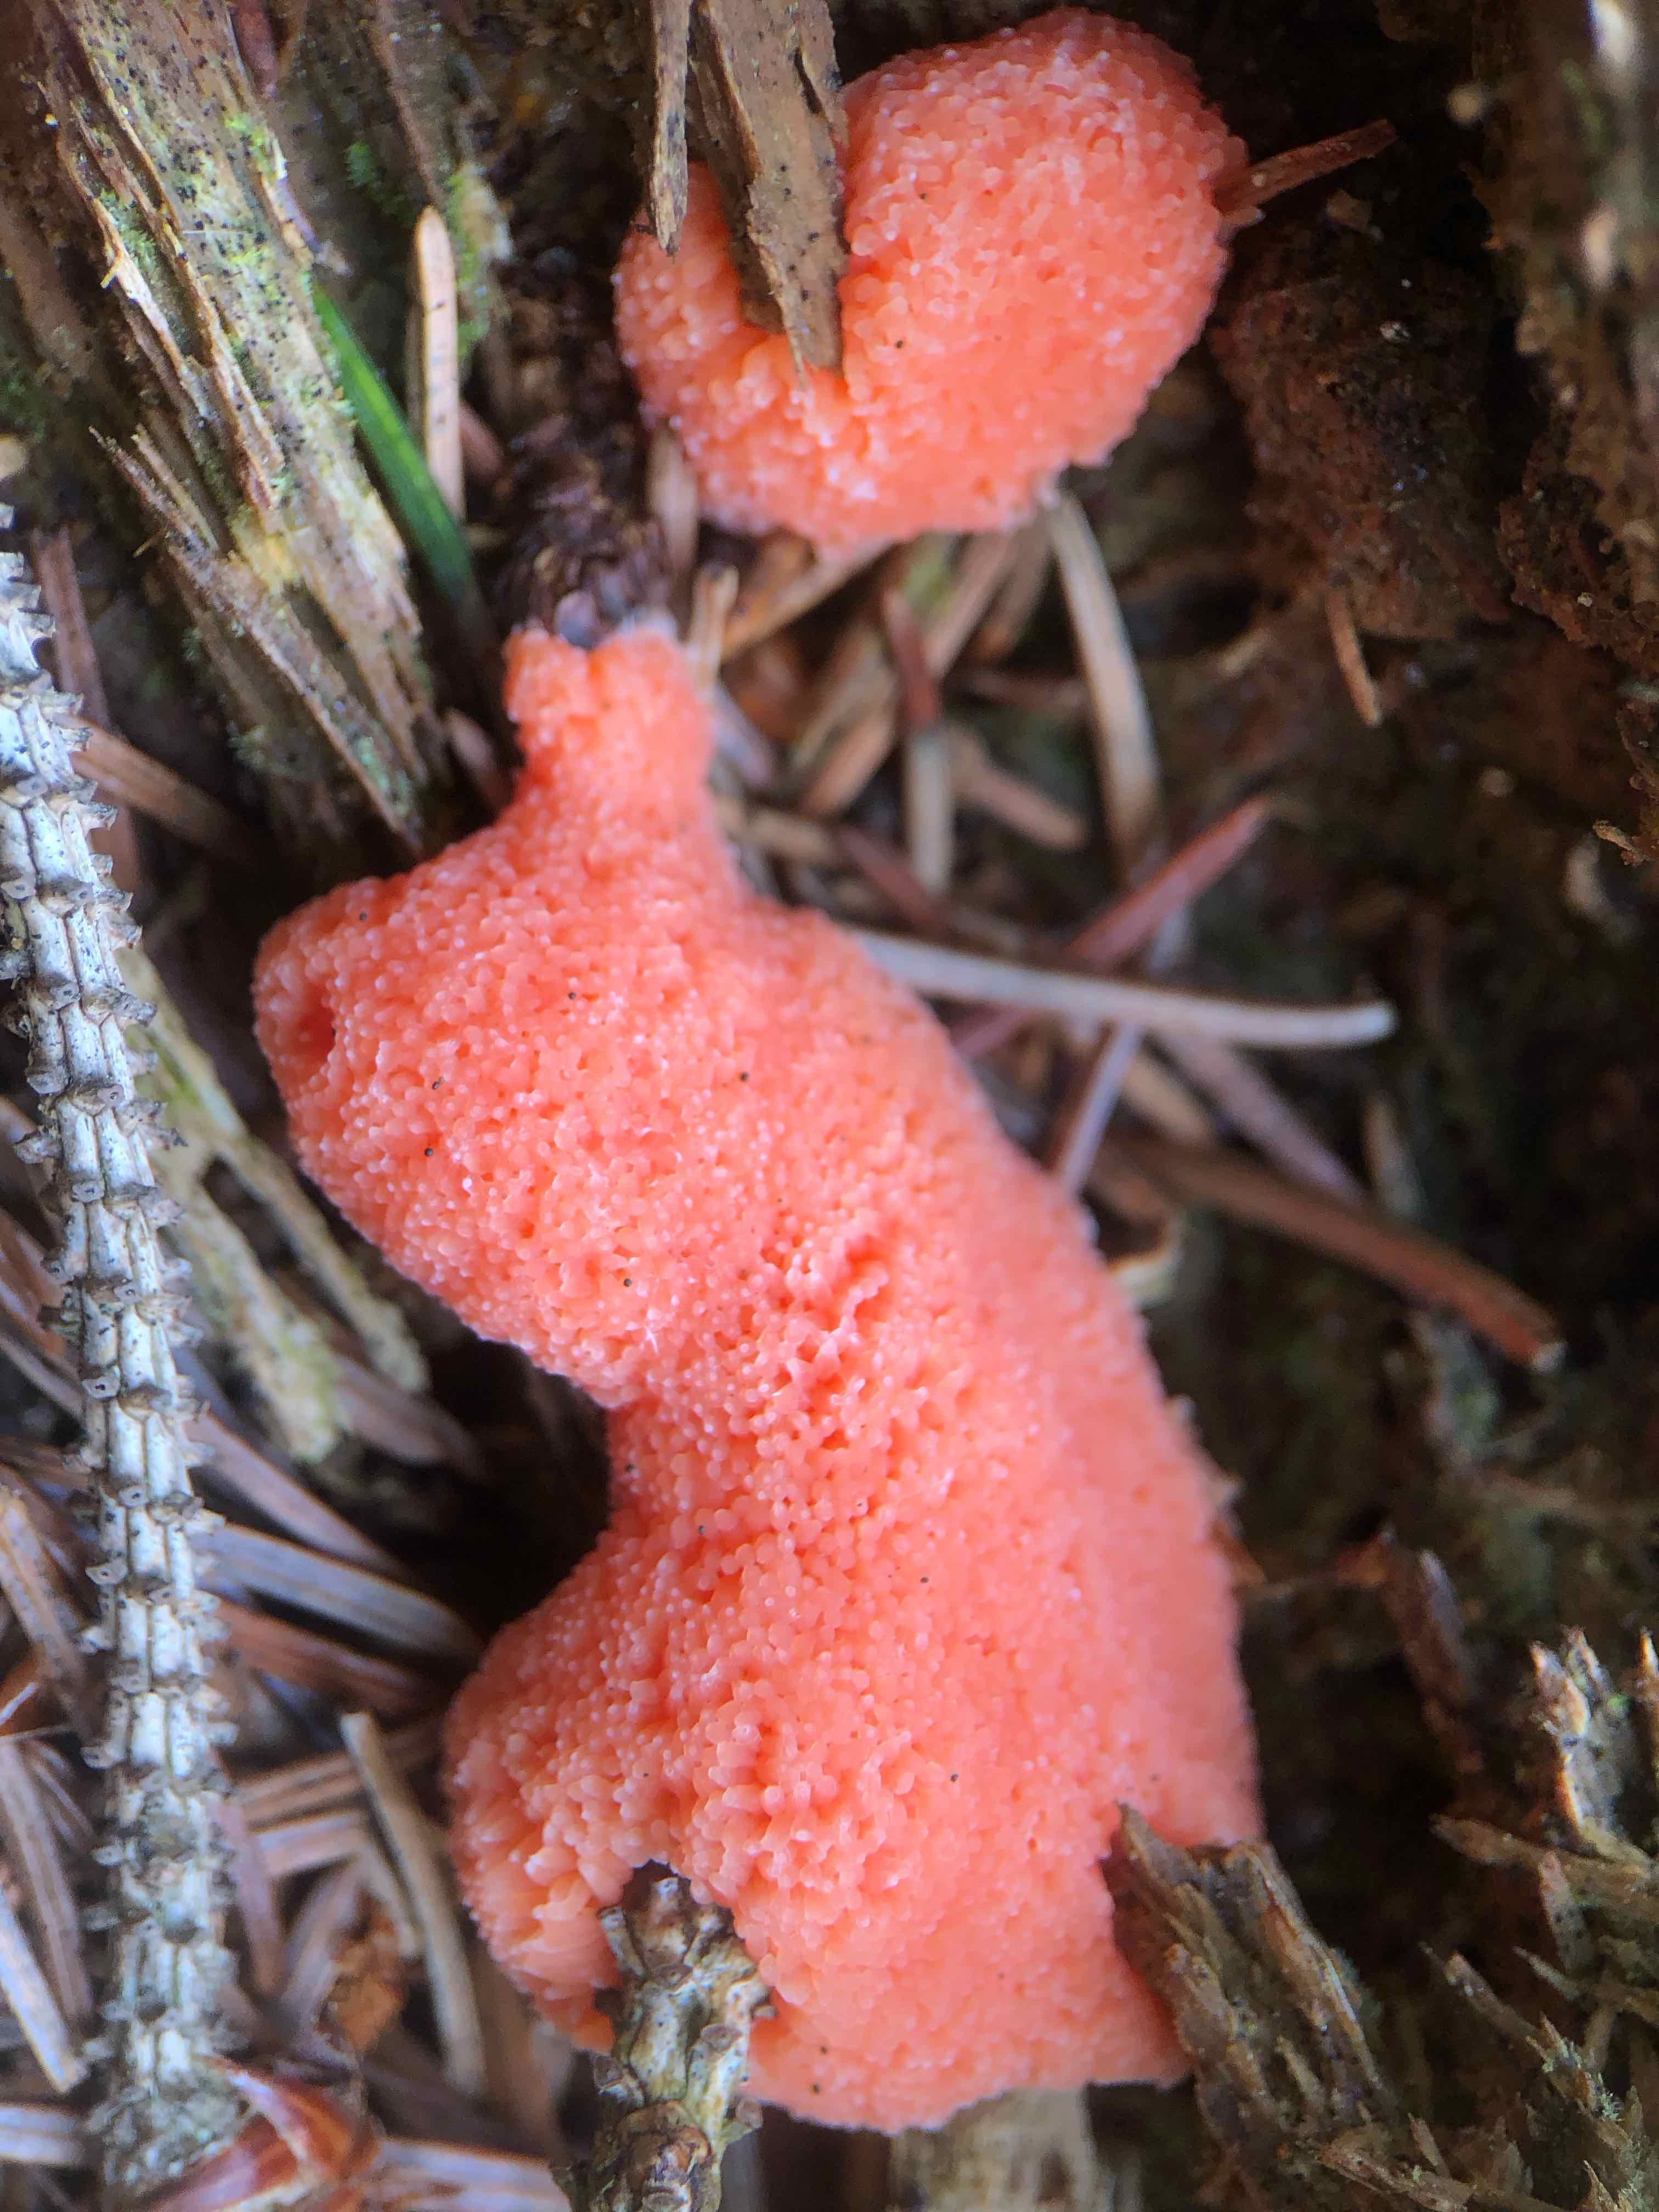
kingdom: Protozoa
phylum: Mycetozoa
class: Myxomycetes
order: Cribrariales
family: Tubiferaceae
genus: Tubifera
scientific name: Tubifera ferruginosa
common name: kanel-støvrør
